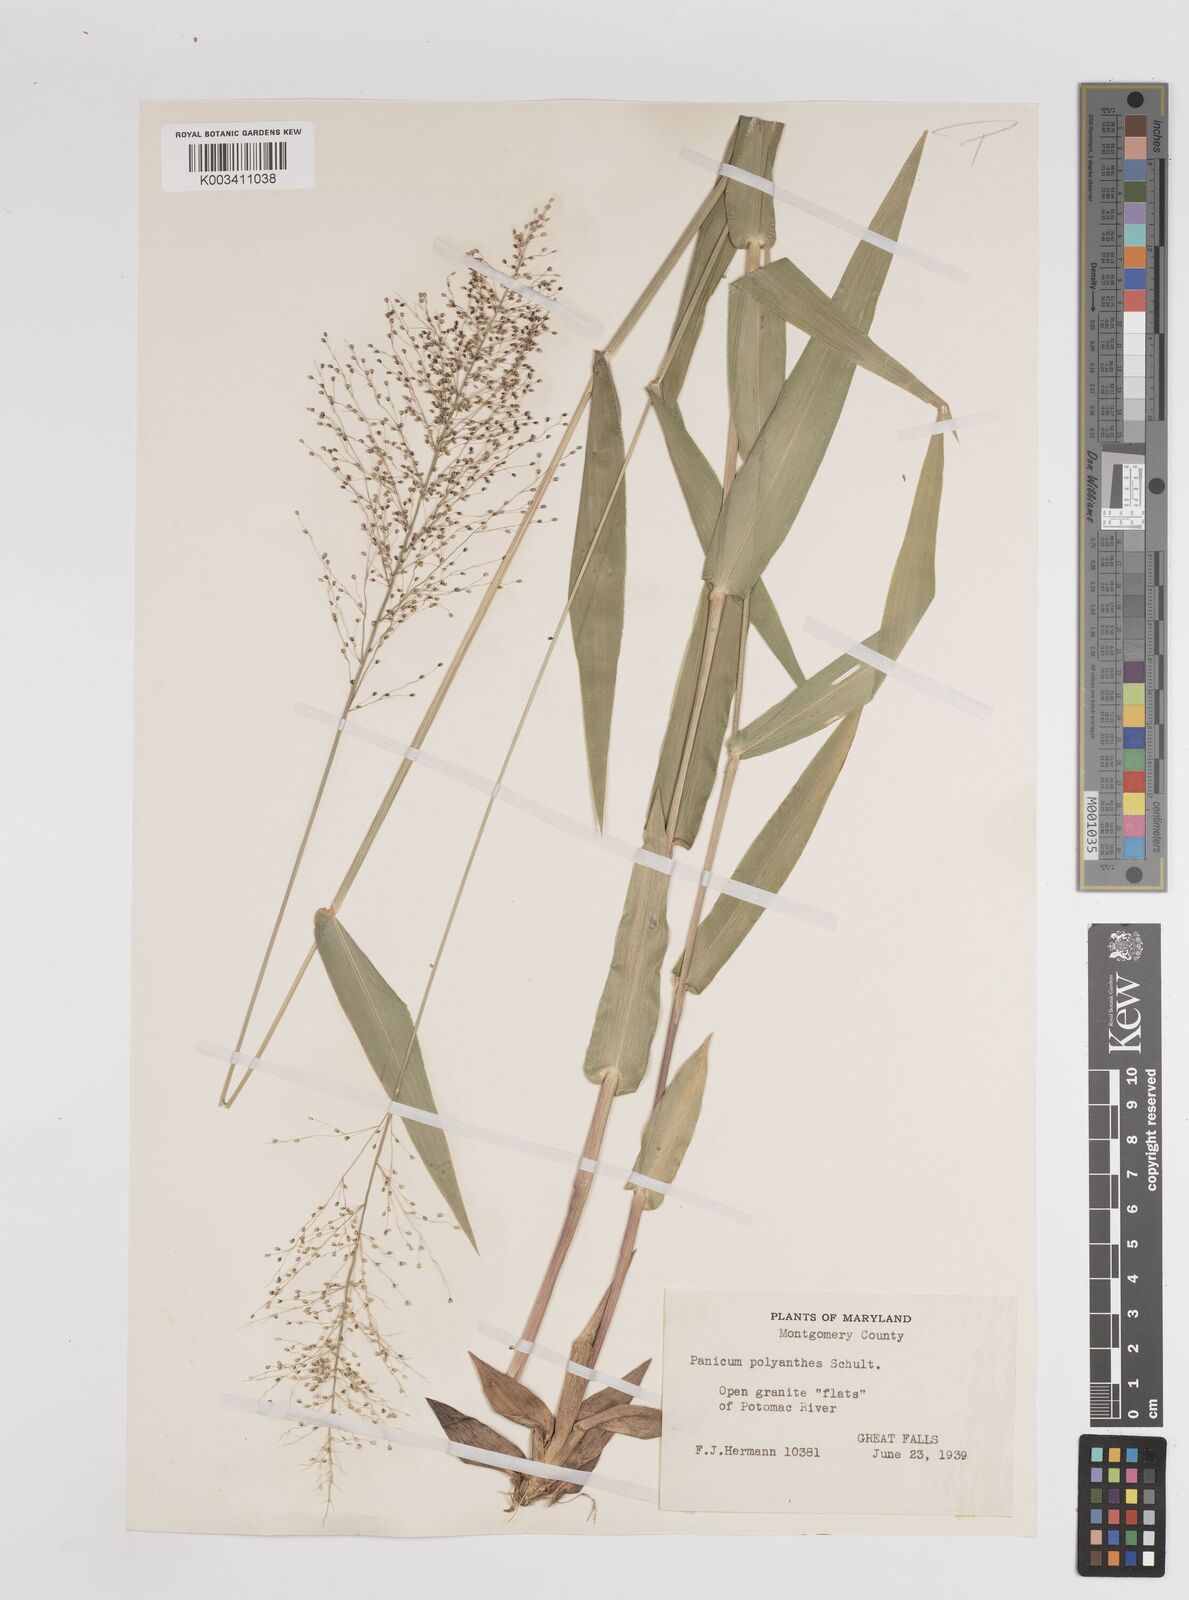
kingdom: Plantae
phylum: Tracheophyta
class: Liliopsida
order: Poales
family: Poaceae
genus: Dichanthelium
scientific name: Dichanthelium polyanthes
